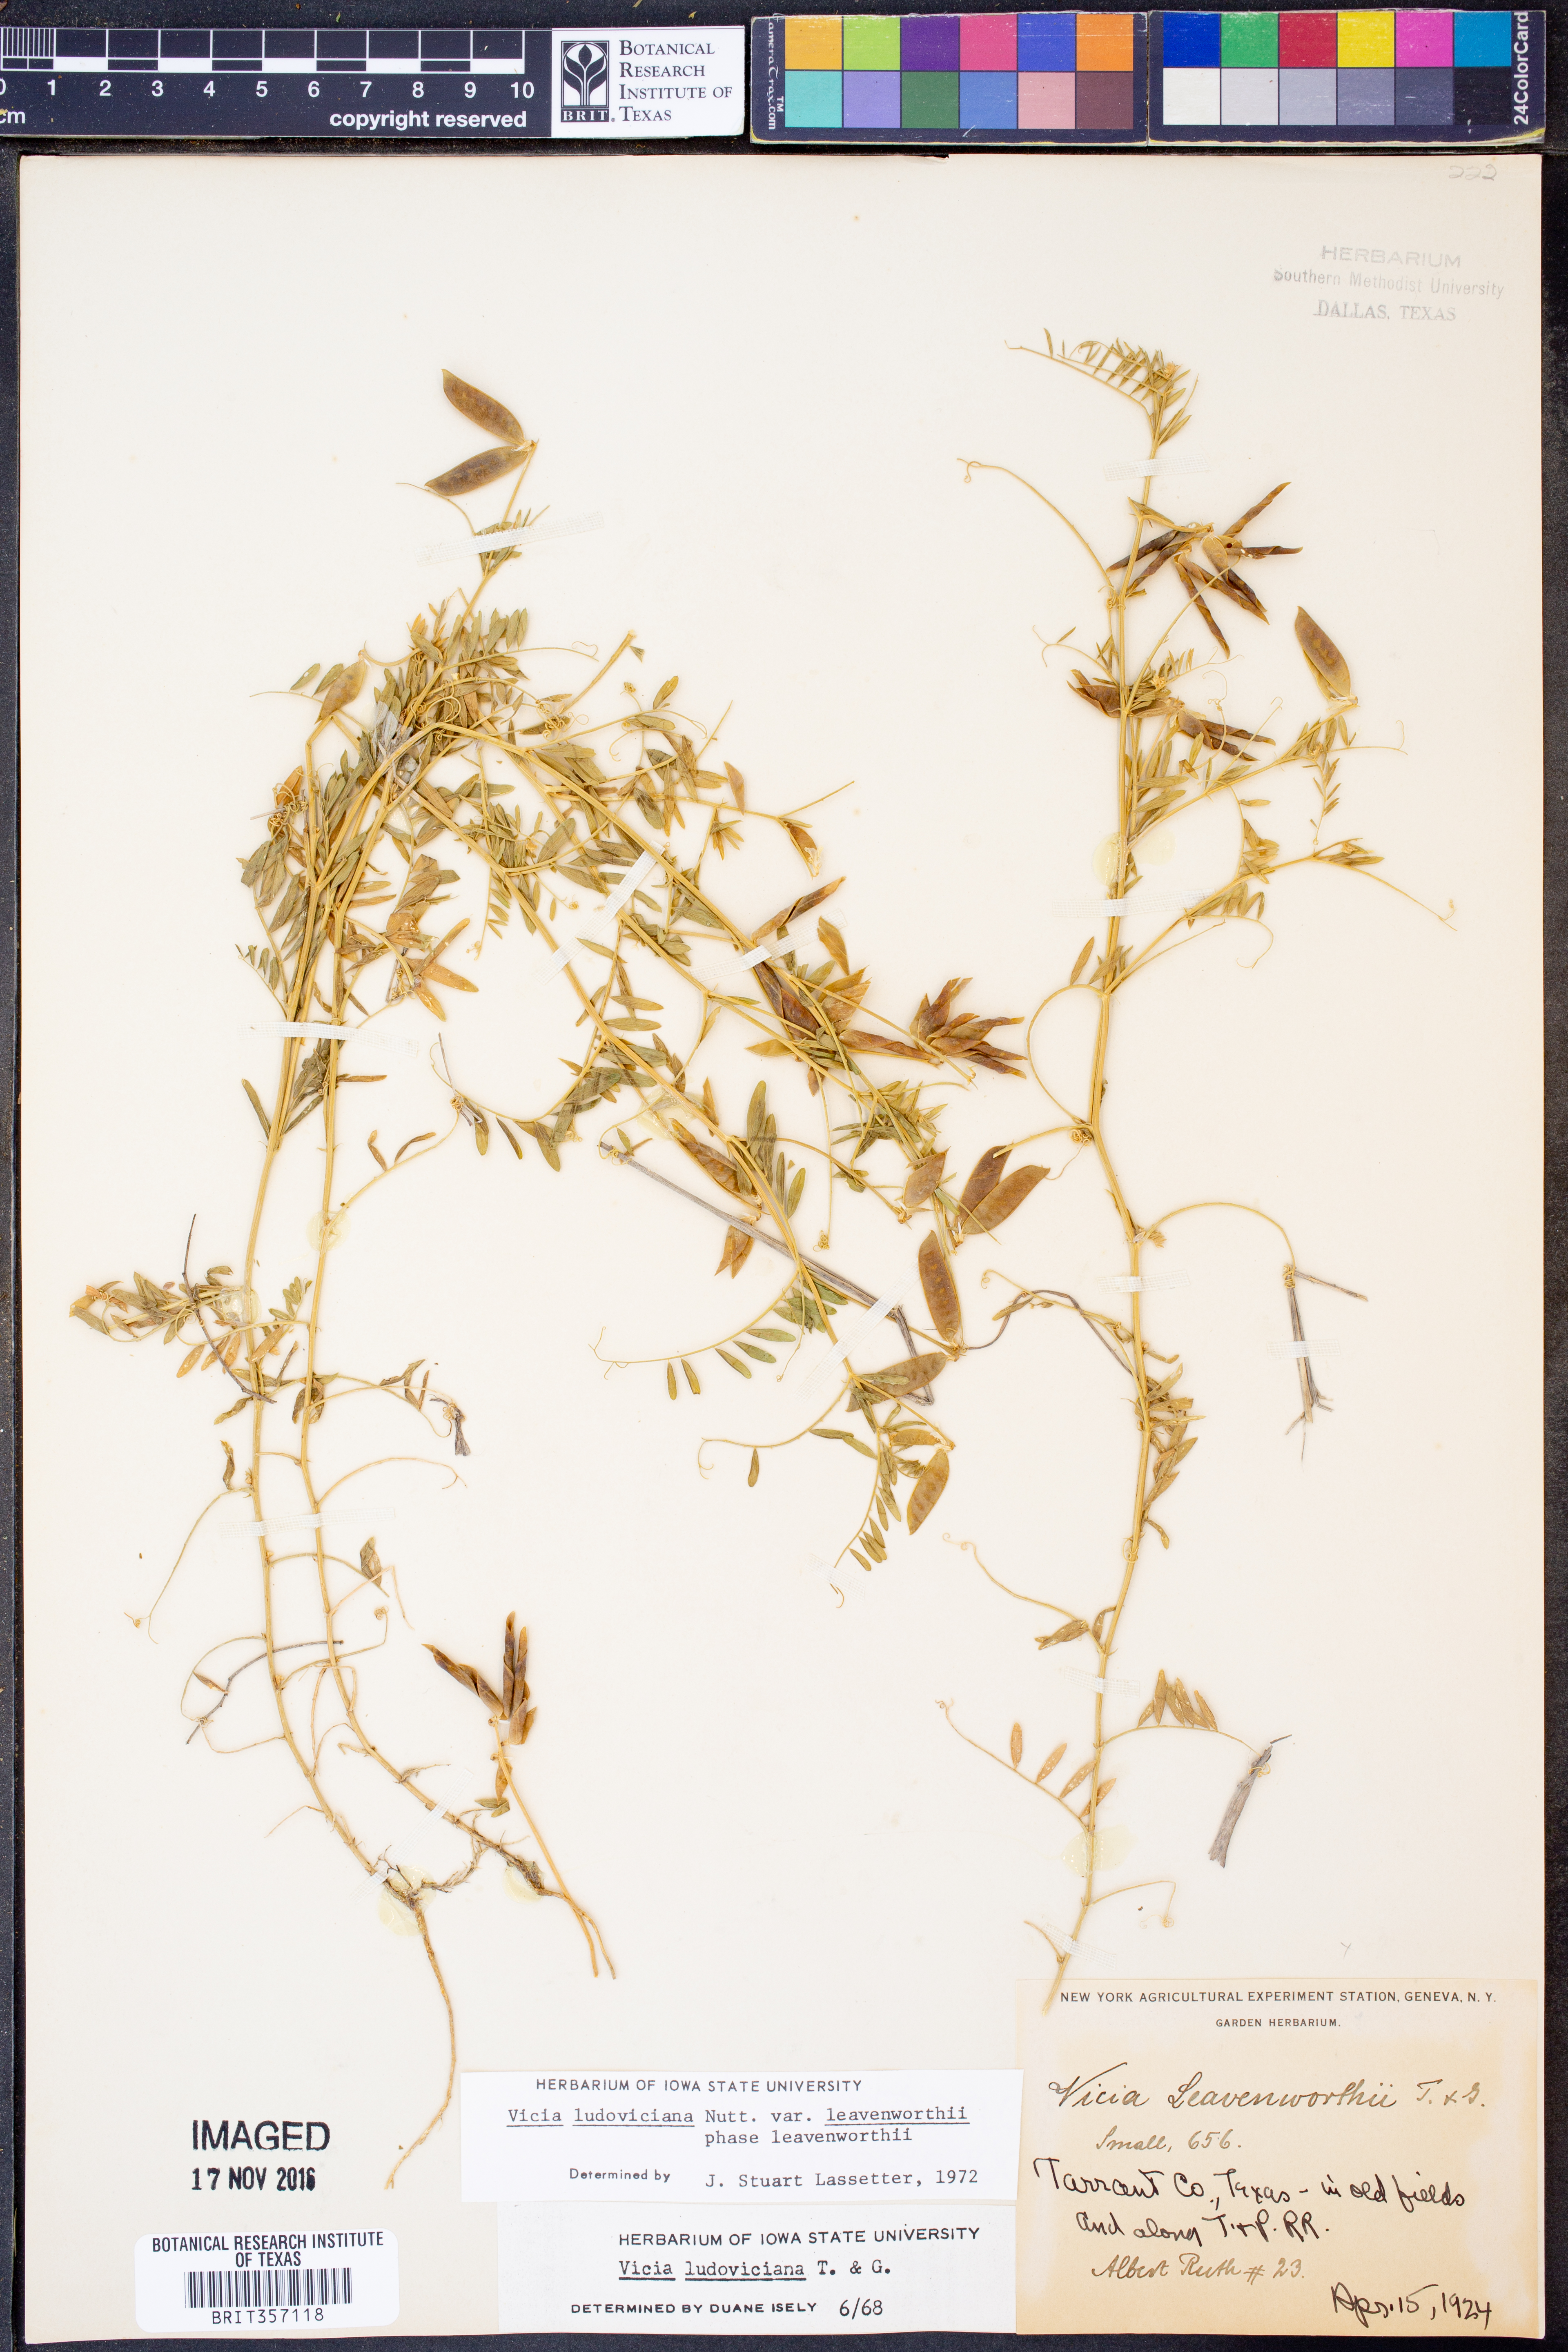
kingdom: Plantae
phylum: Tracheophyta
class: Magnoliopsida
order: Fabales
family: Fabaceae
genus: Vicia
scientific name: Vicia ludoviciana
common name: Louisiana vetch
